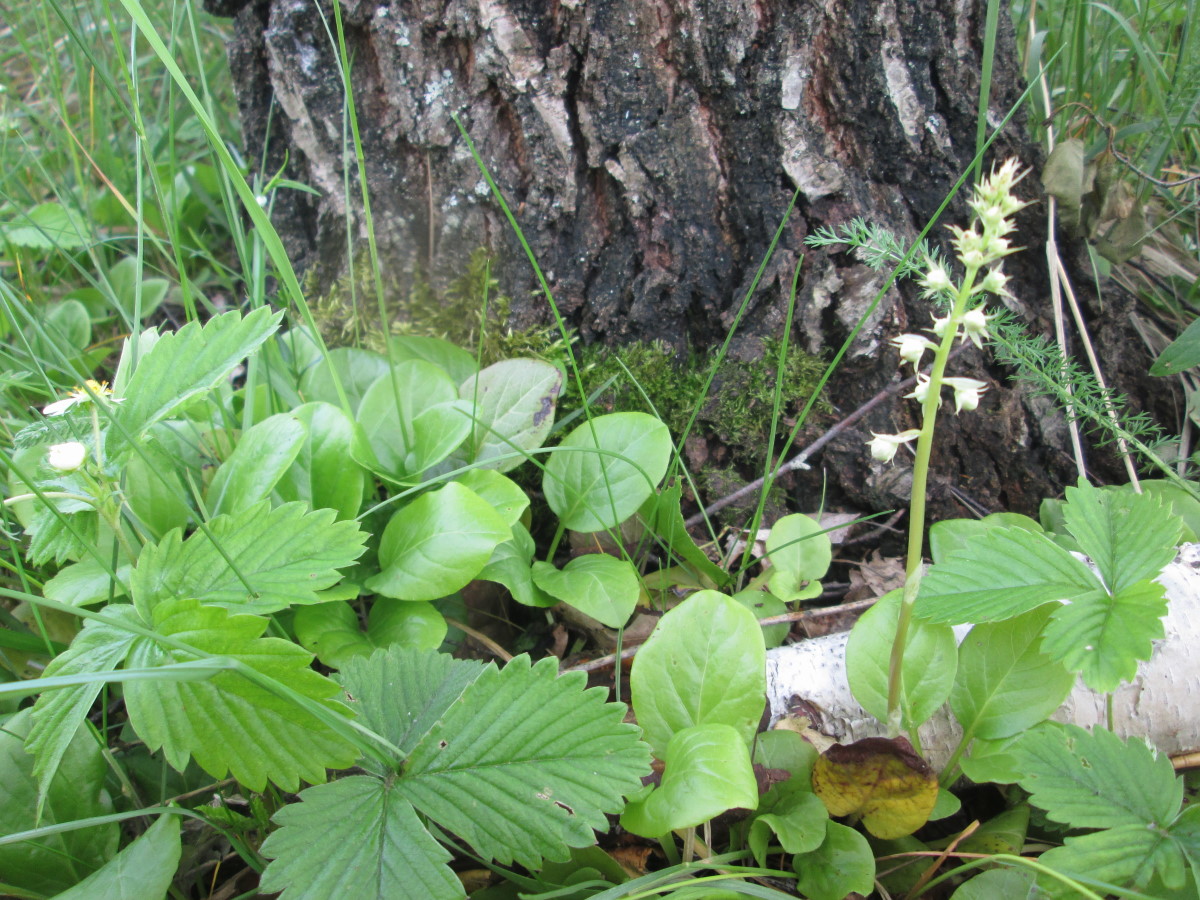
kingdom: Plantae
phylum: Tracheophyta
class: Magnoliopsida
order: Ericales
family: Ericaceae
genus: Pyrola
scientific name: Pyrola
